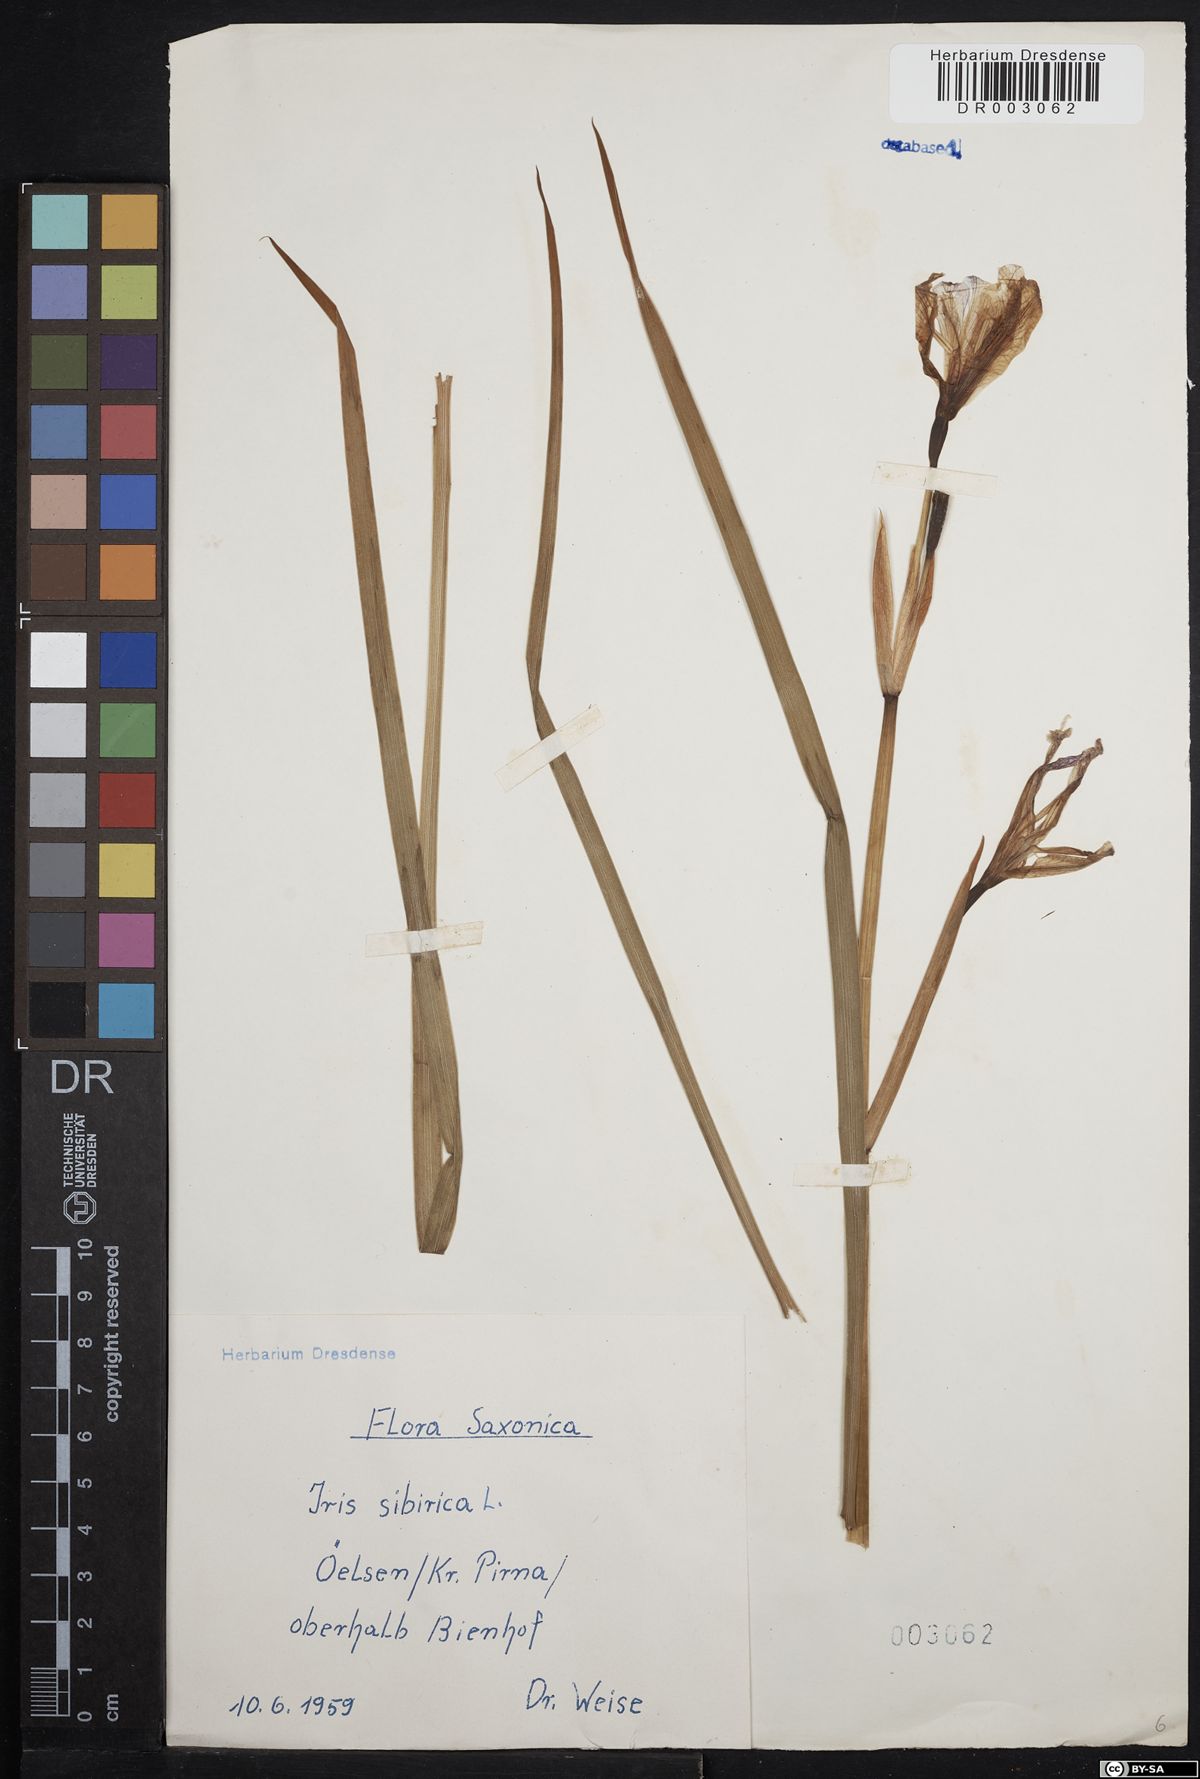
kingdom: Plantae
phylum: Tracheophyta
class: Liliopsida
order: Asparagales
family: Iridaceae
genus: Iris
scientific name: Iris sibirica
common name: Siberian iris
